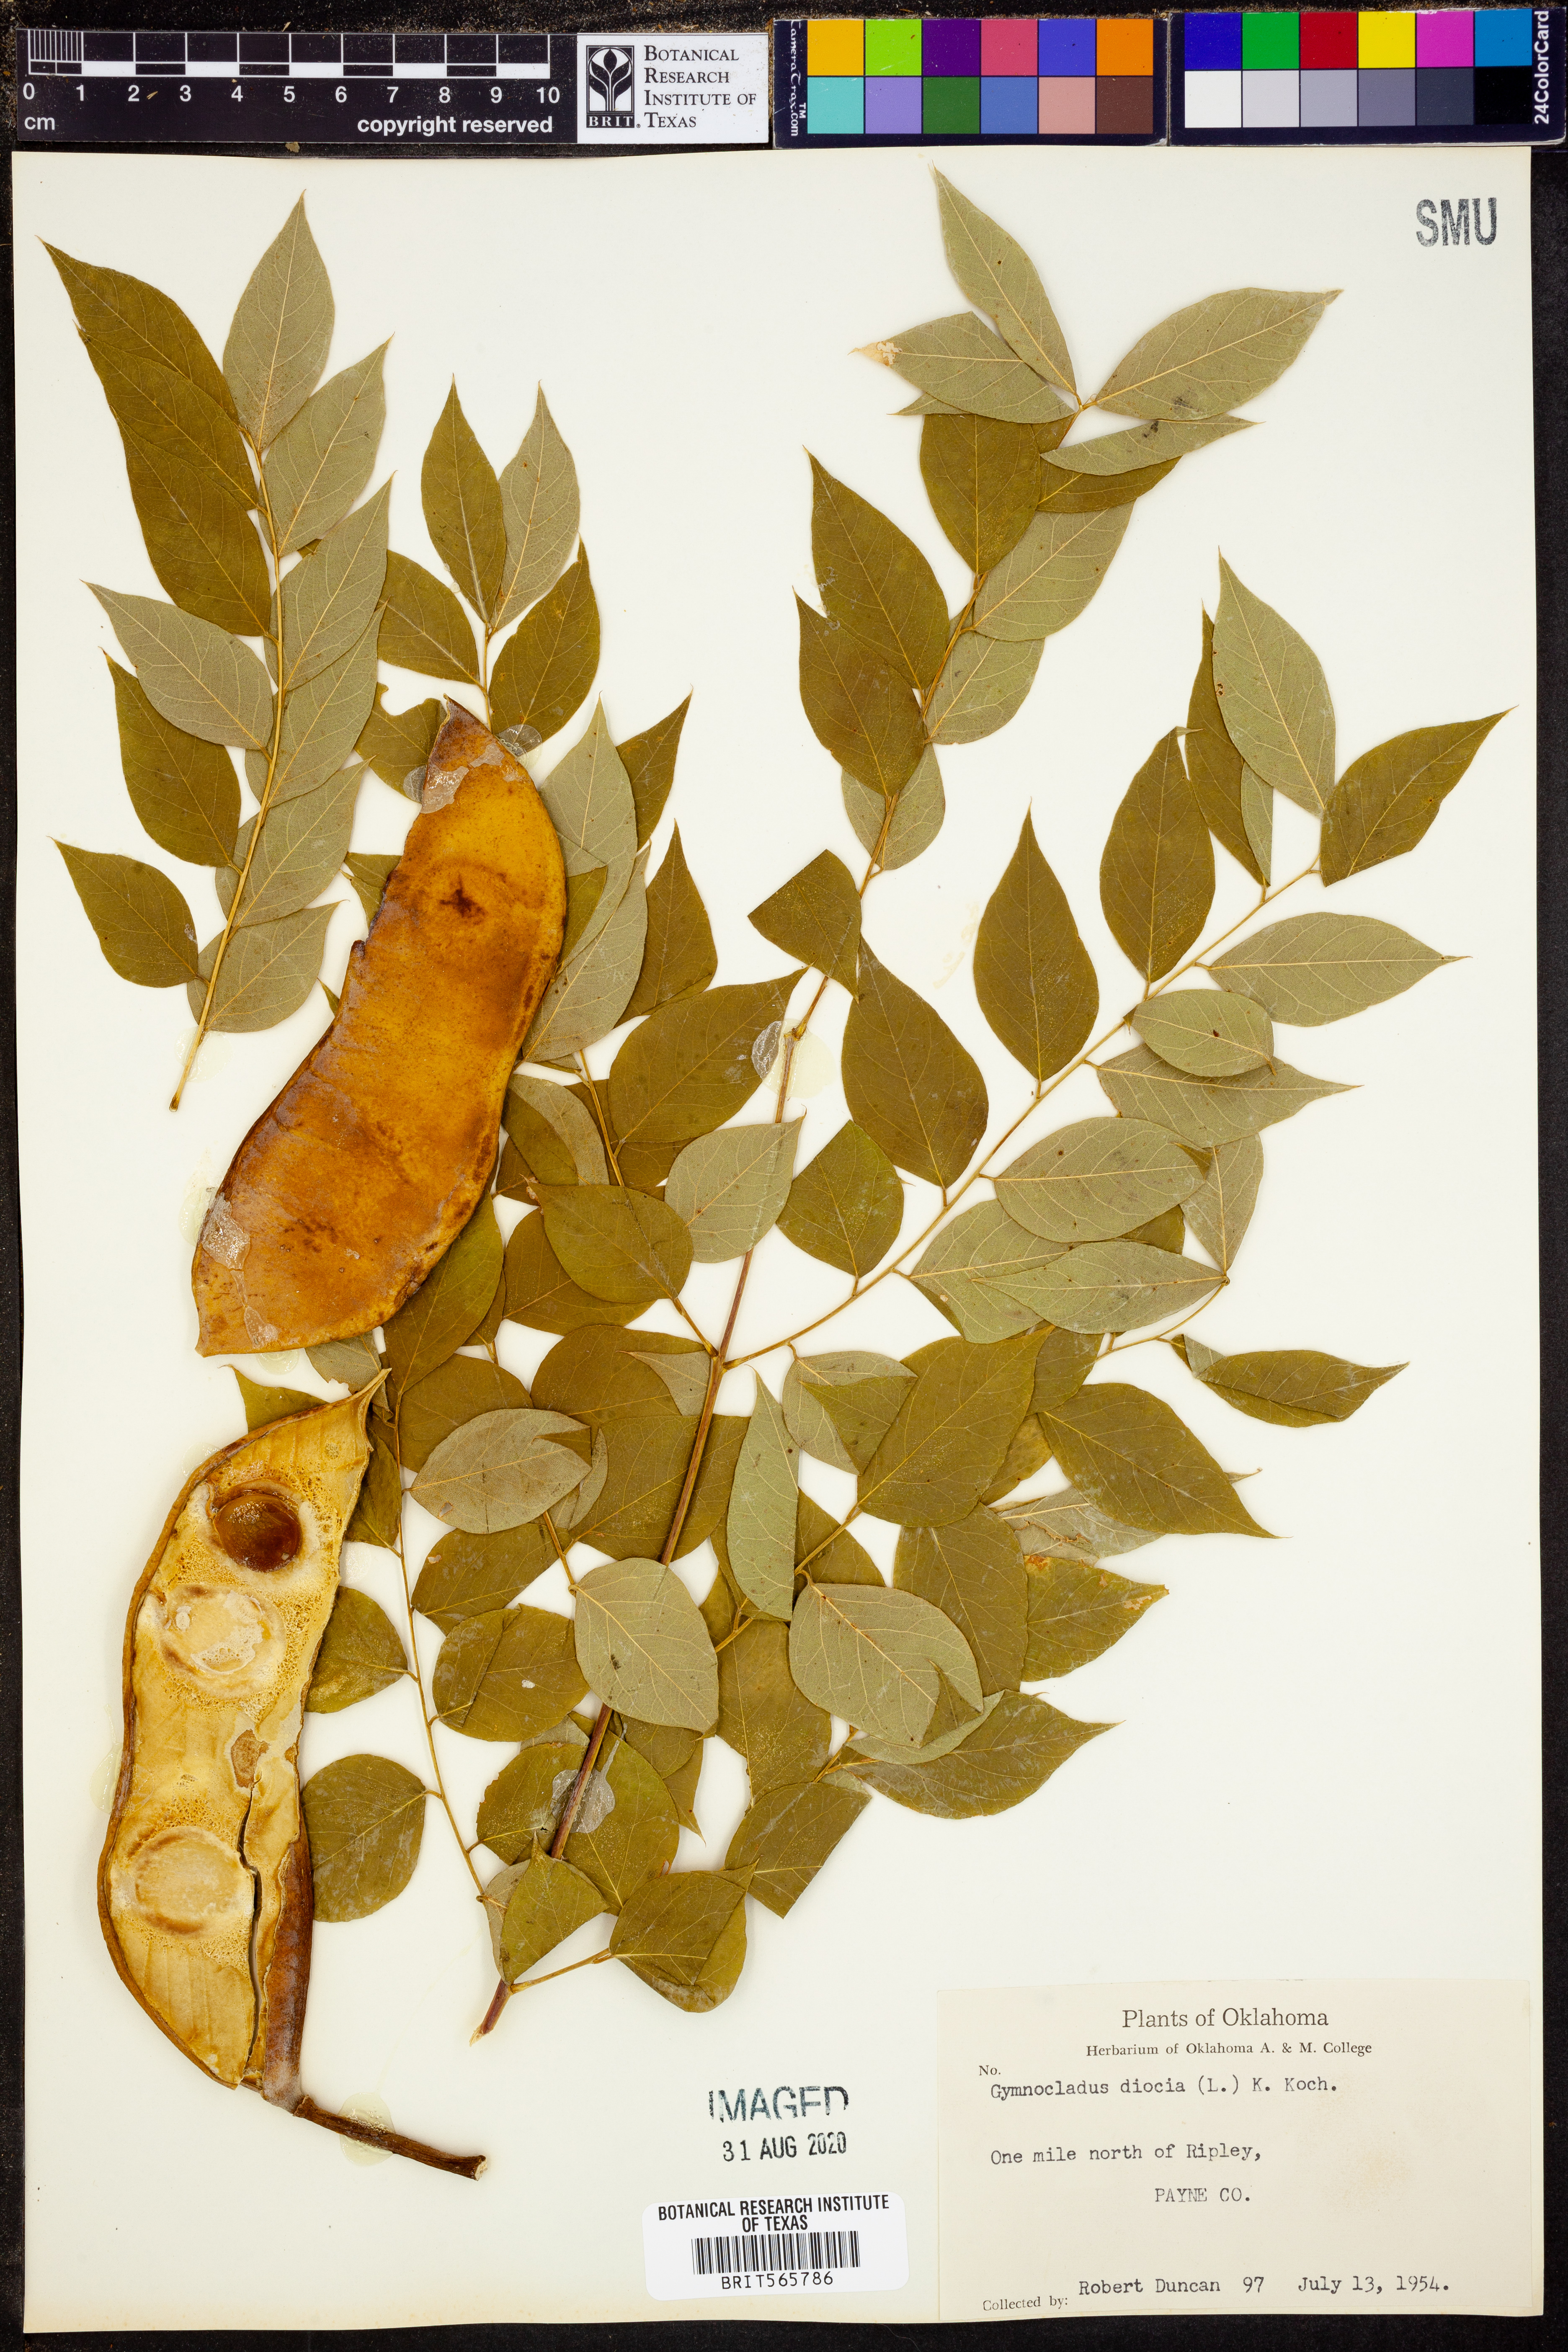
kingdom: Plantae
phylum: Tracheophyta
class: Magnoliopsida
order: Fabales
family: Fabaceae
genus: Gymnocladus
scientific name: Gymnocladus dioicus
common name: Kentucky coffee-tree
